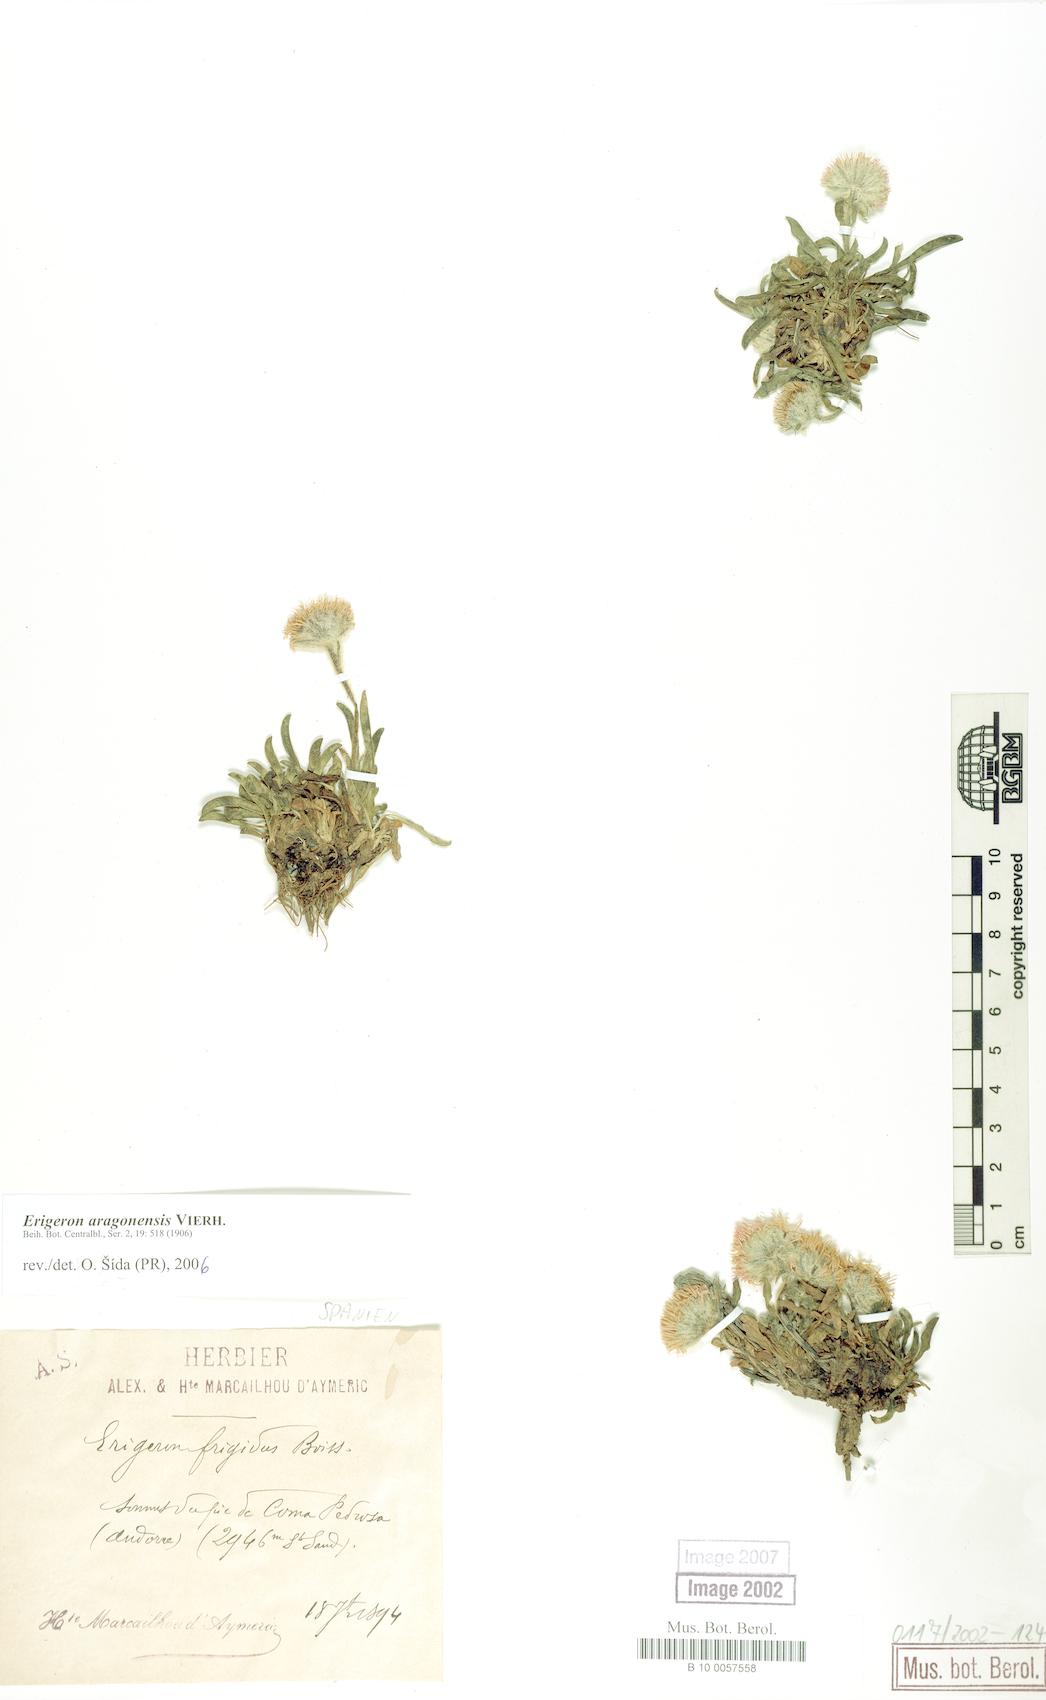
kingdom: Plantae
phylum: Tracheophyta
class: Magnoliopsida
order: Asterales
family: Asteraceae
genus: Erigeron
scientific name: Erigeron aragonensis
